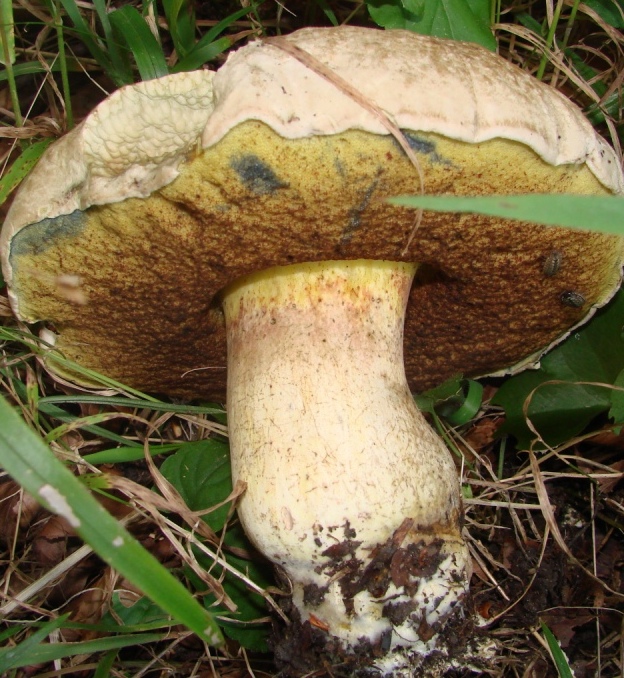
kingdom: Fungi
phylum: Basidiomycota
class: Agaricomycetes
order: Boletales
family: Boletaceae
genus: Caloboletus
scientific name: Caloboletus radicans
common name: rod-rørhat
